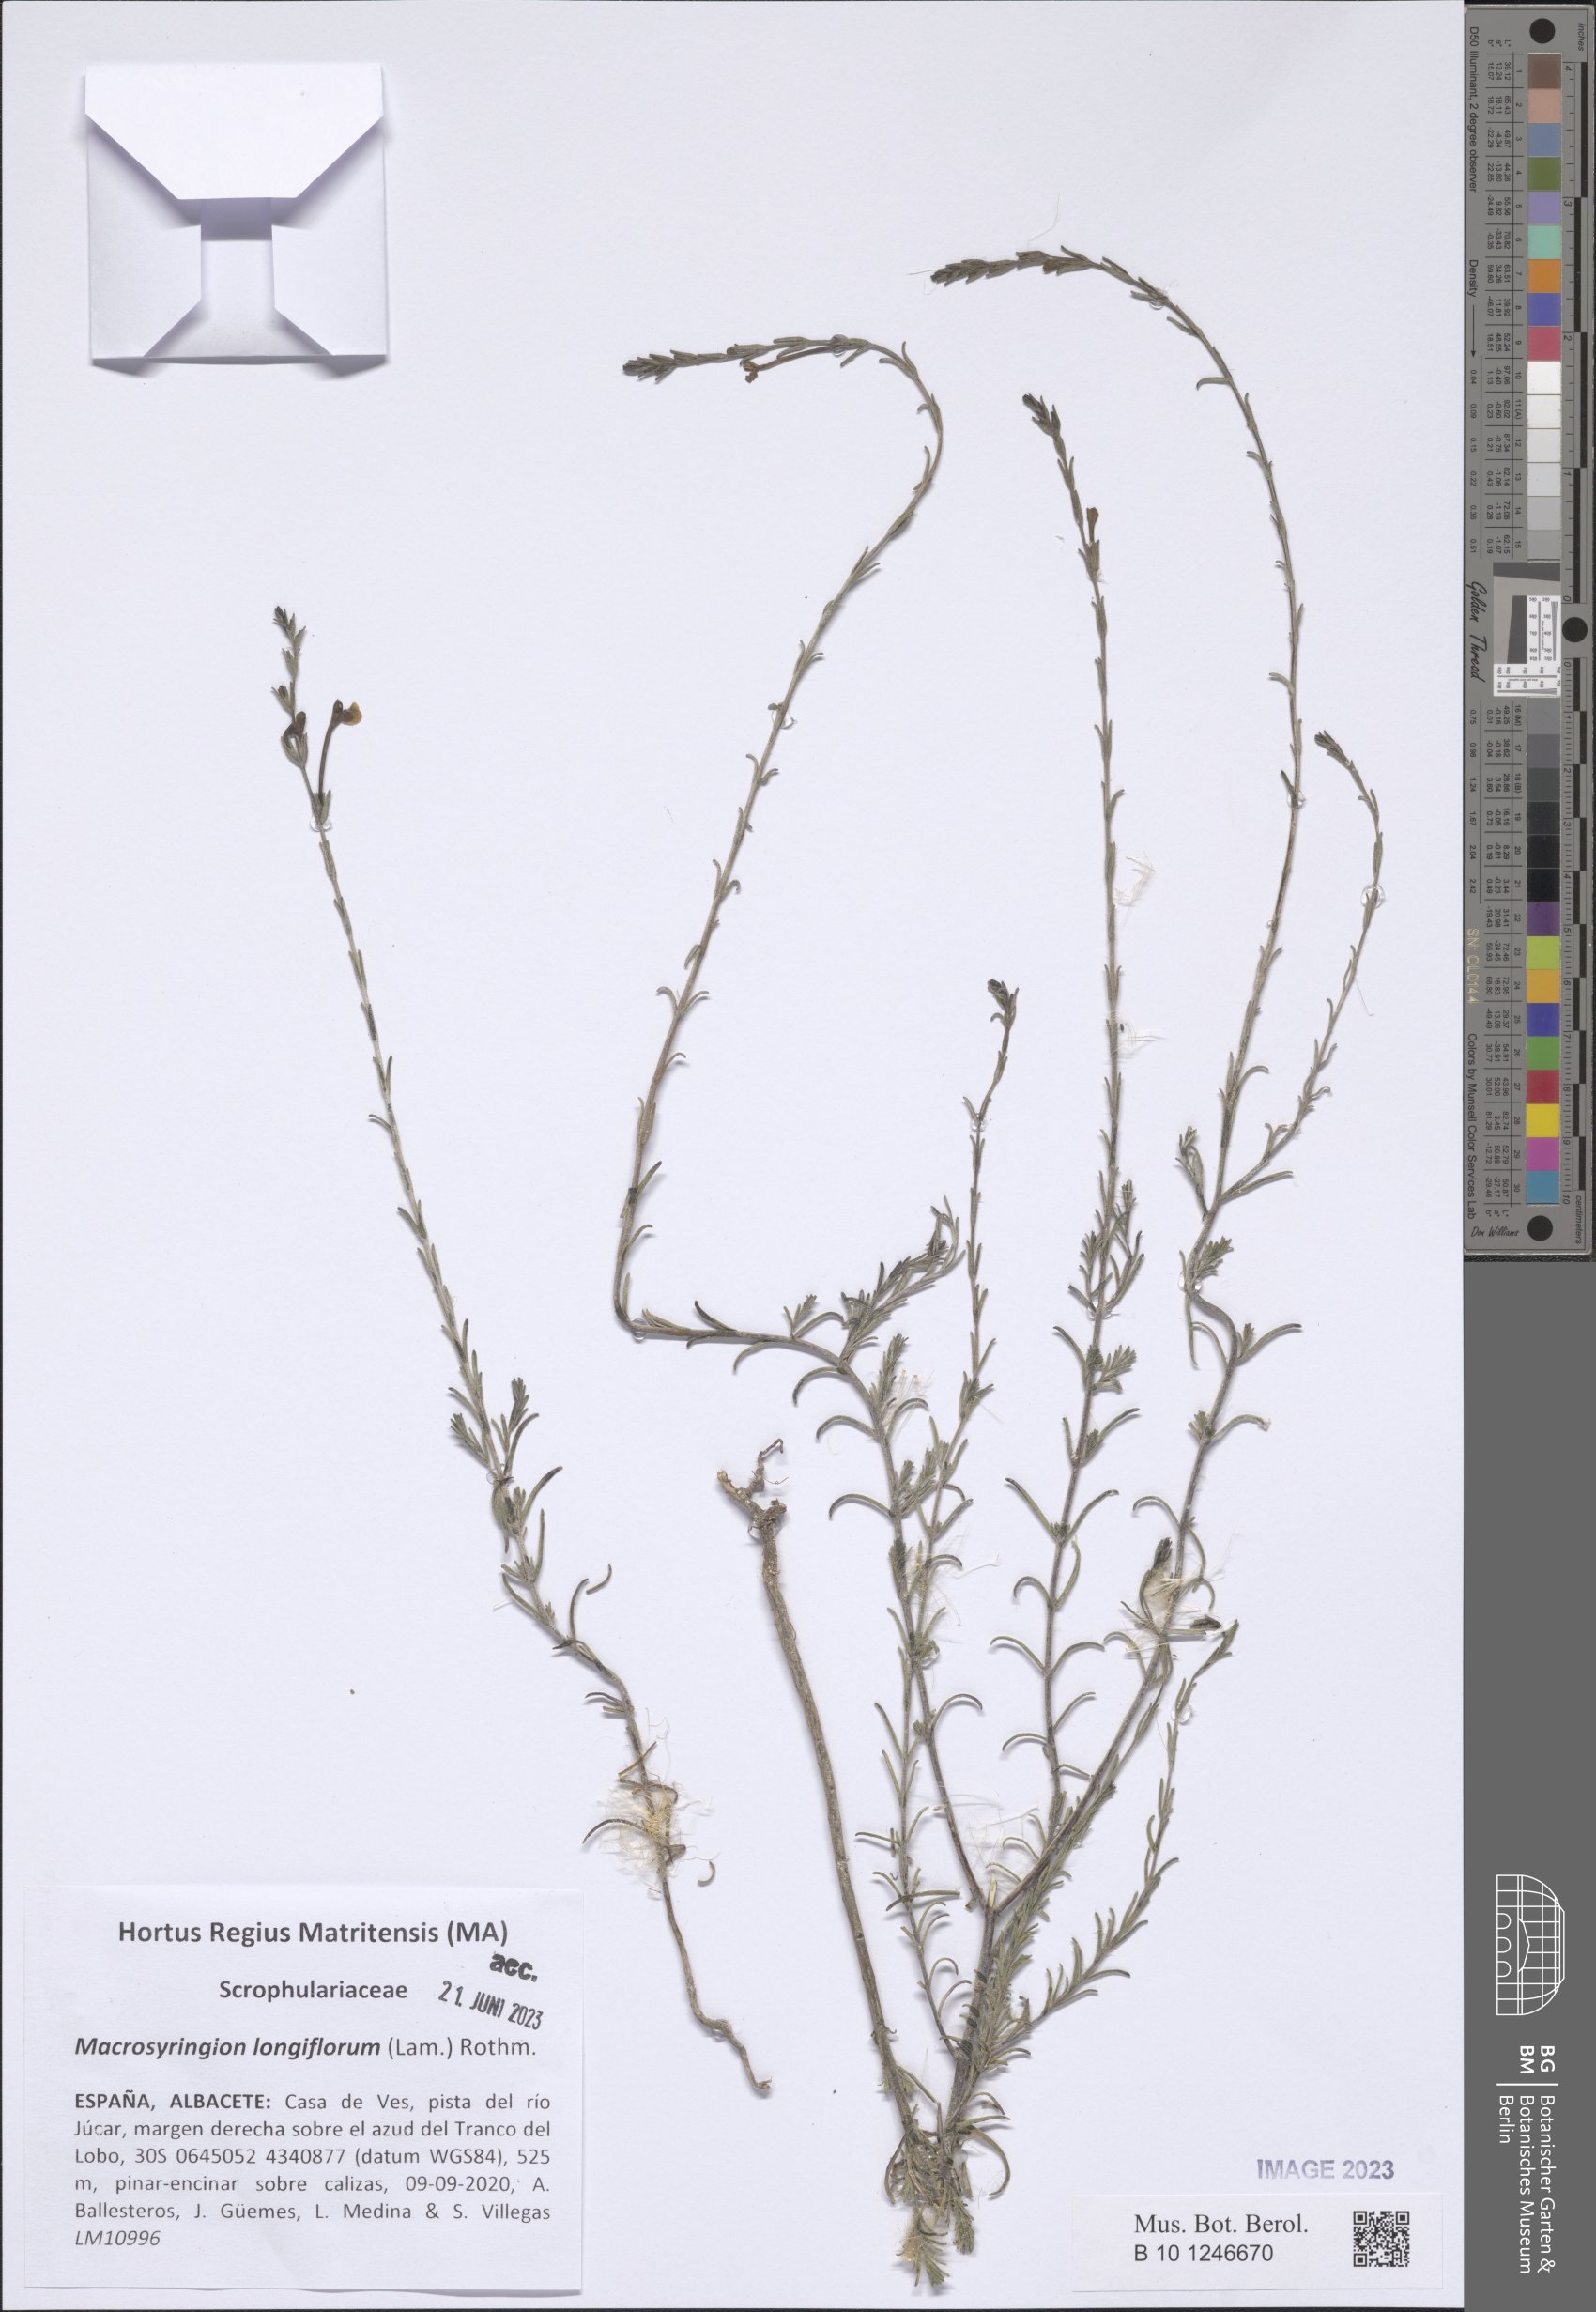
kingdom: Plantae
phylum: Tracheophyta
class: Magnoliopsida
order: Lamiales
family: Orobanchaceae
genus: Odontites
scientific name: Odontites longiflorus
